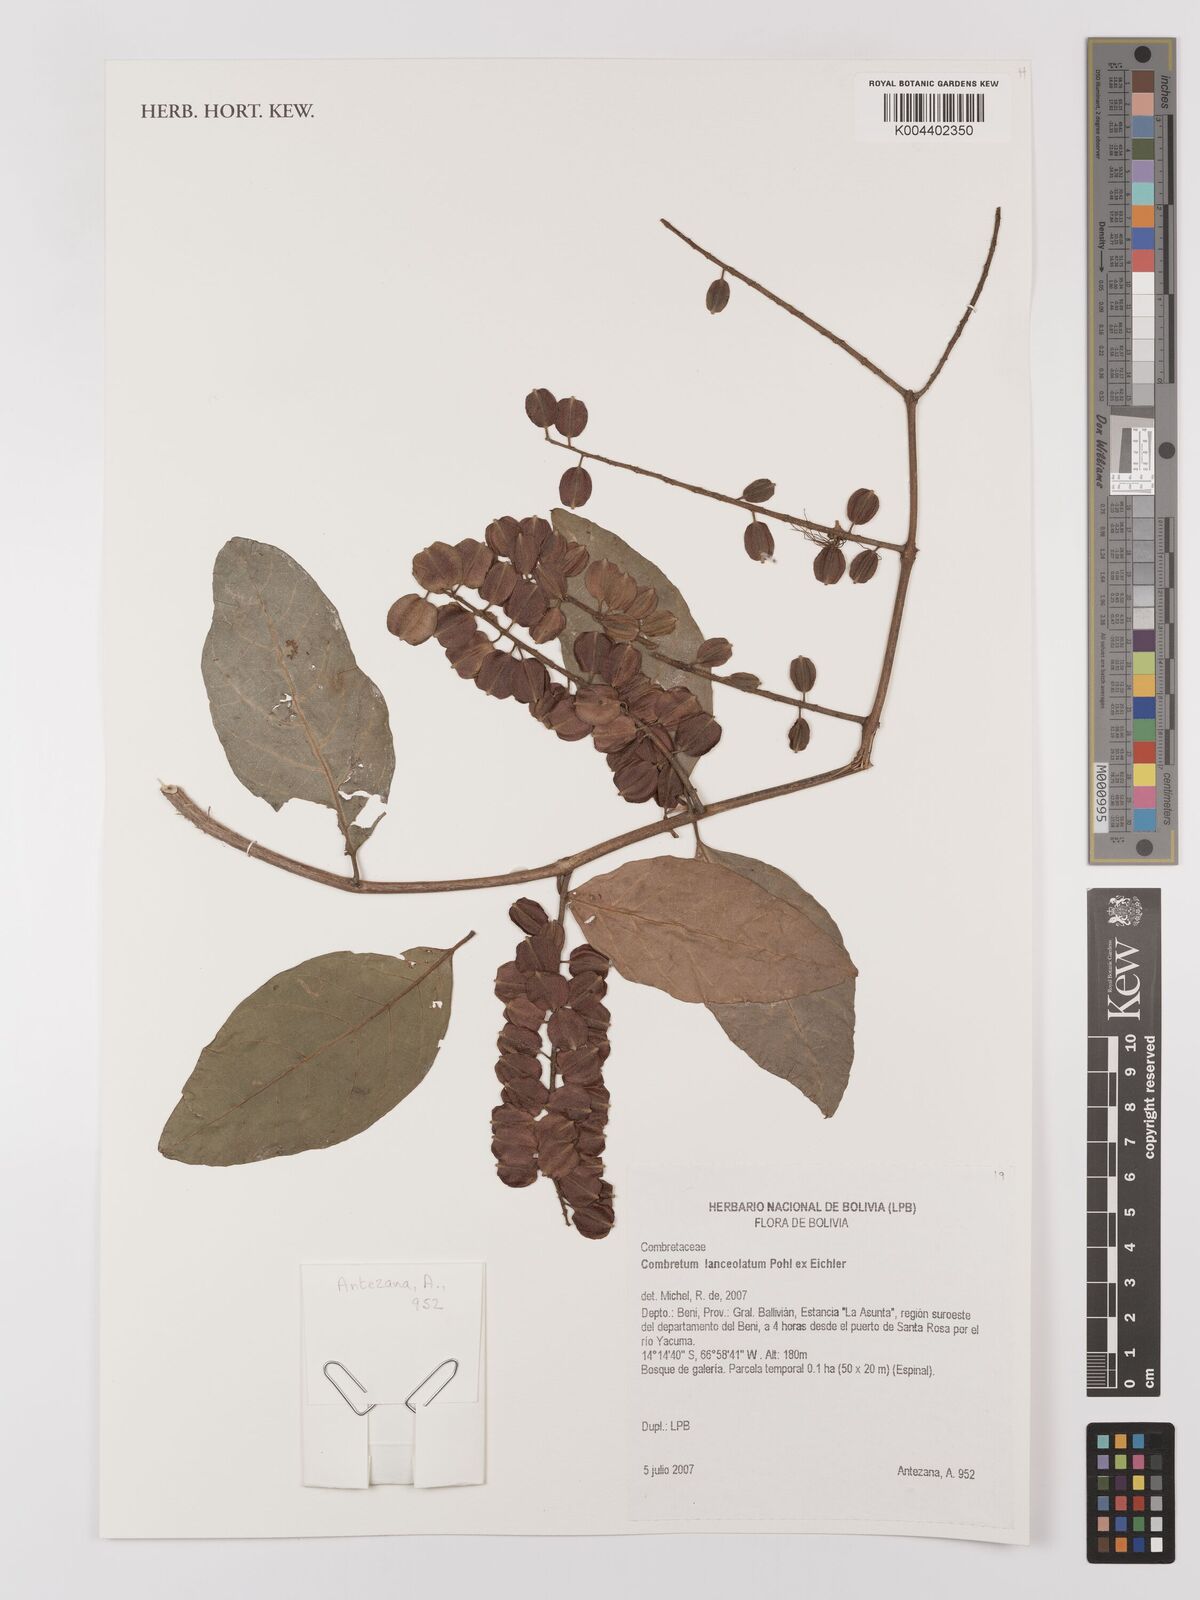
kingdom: Plantae
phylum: Tracheophyta
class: Magnoliopsida
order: Myrtales
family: Combretaceae
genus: Combretum
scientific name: Combretum lanceolatum
